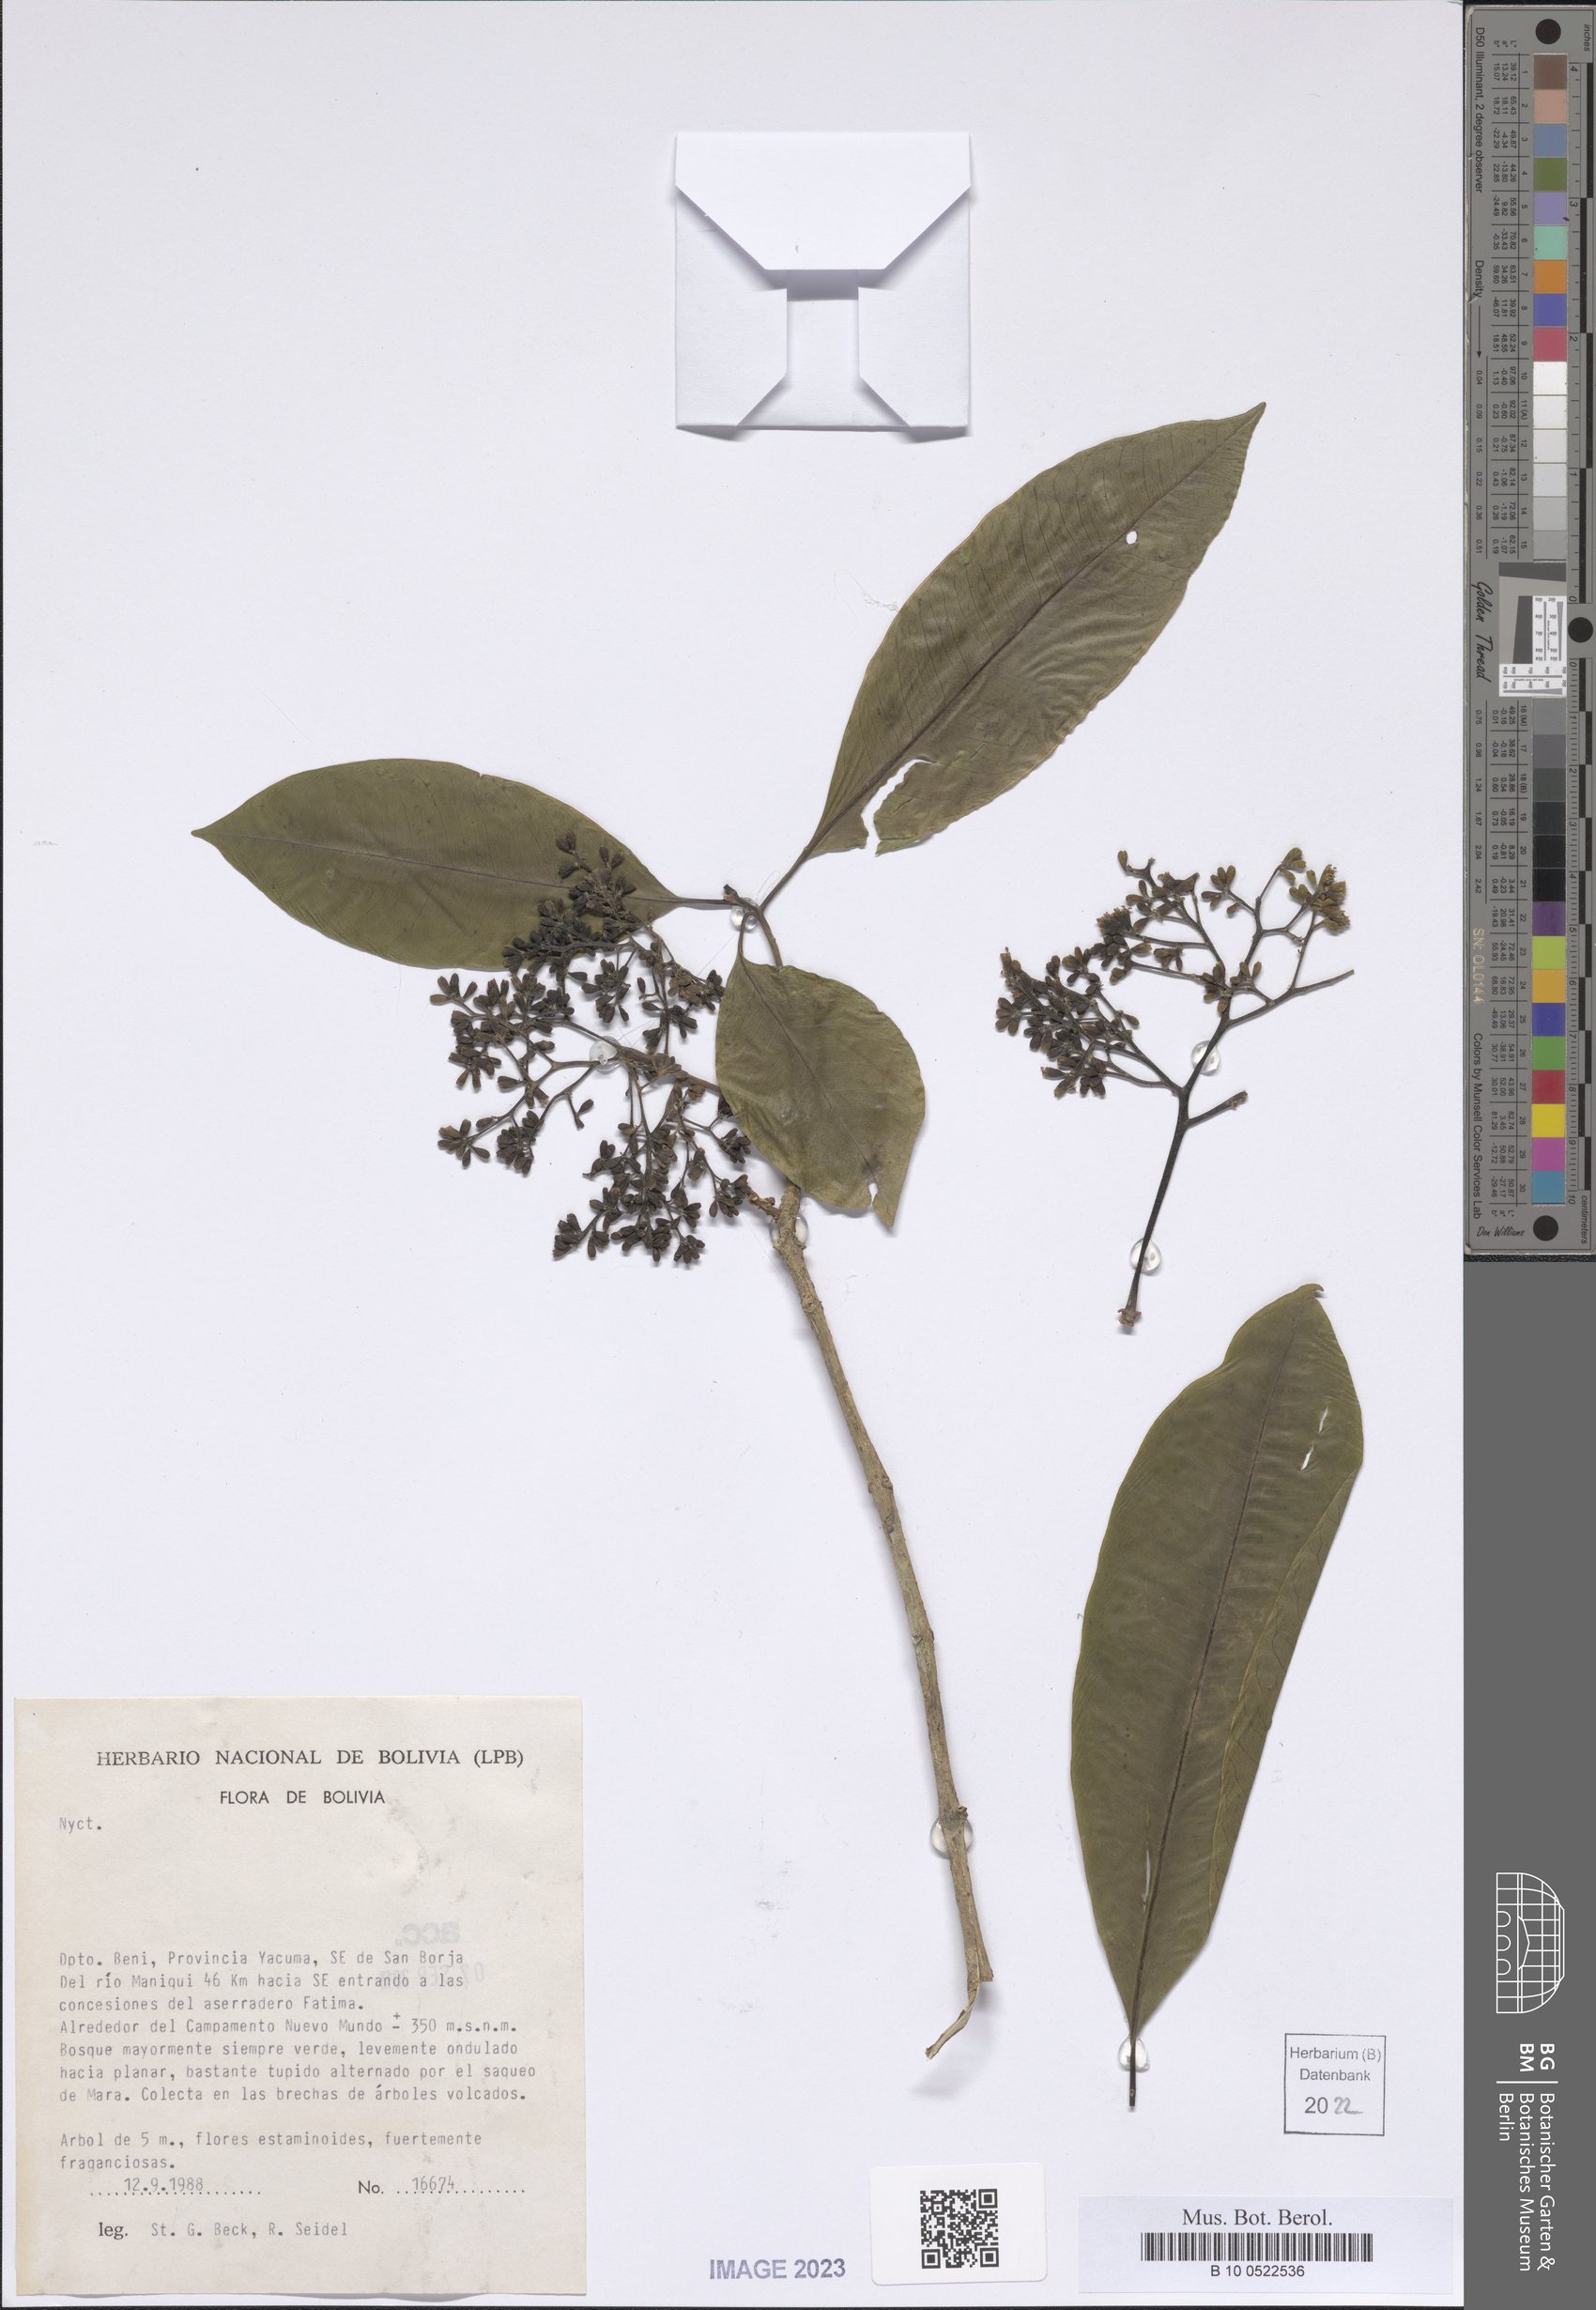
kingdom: Plantae
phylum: Tracheophyta
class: Magnoliopsida
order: Caryophyllales
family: Nyctaginaceae
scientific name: Nyctaginaceae
